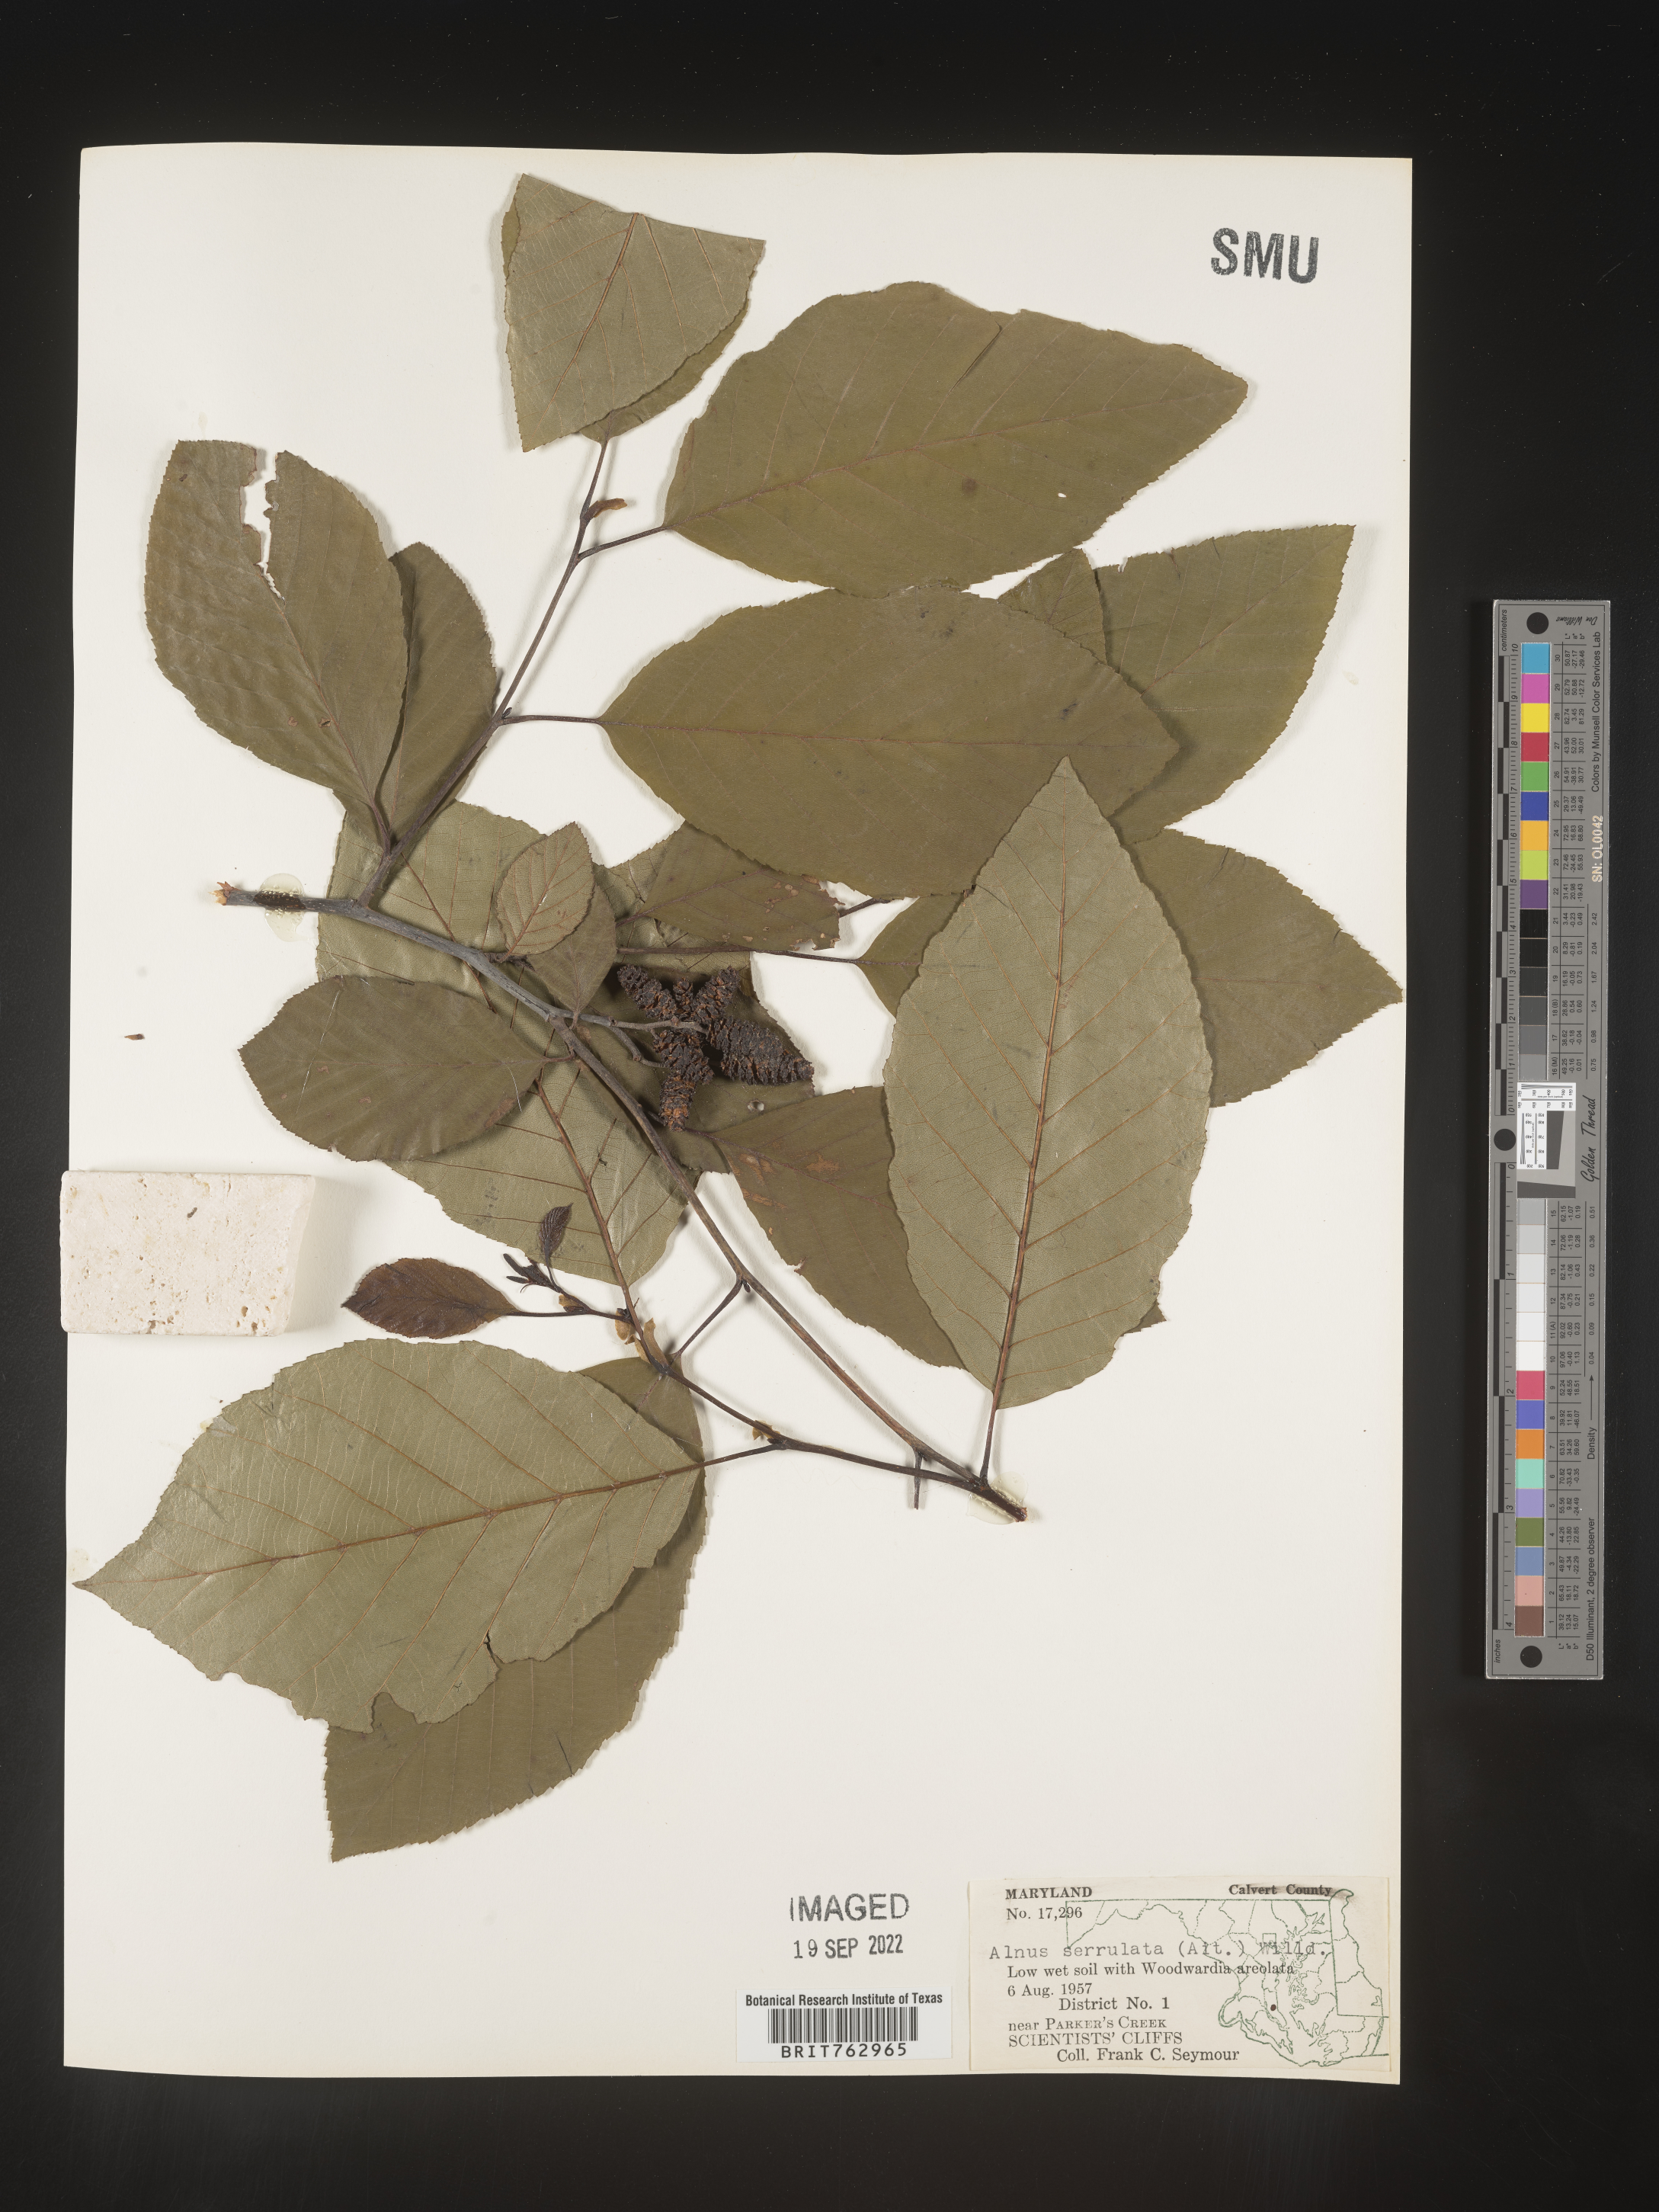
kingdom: Plantae
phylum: Tracheophyta
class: Magnoliopsida
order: Fagales
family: Betulaceae
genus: Alnus
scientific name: Alnus serrulata
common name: Hazel alder
